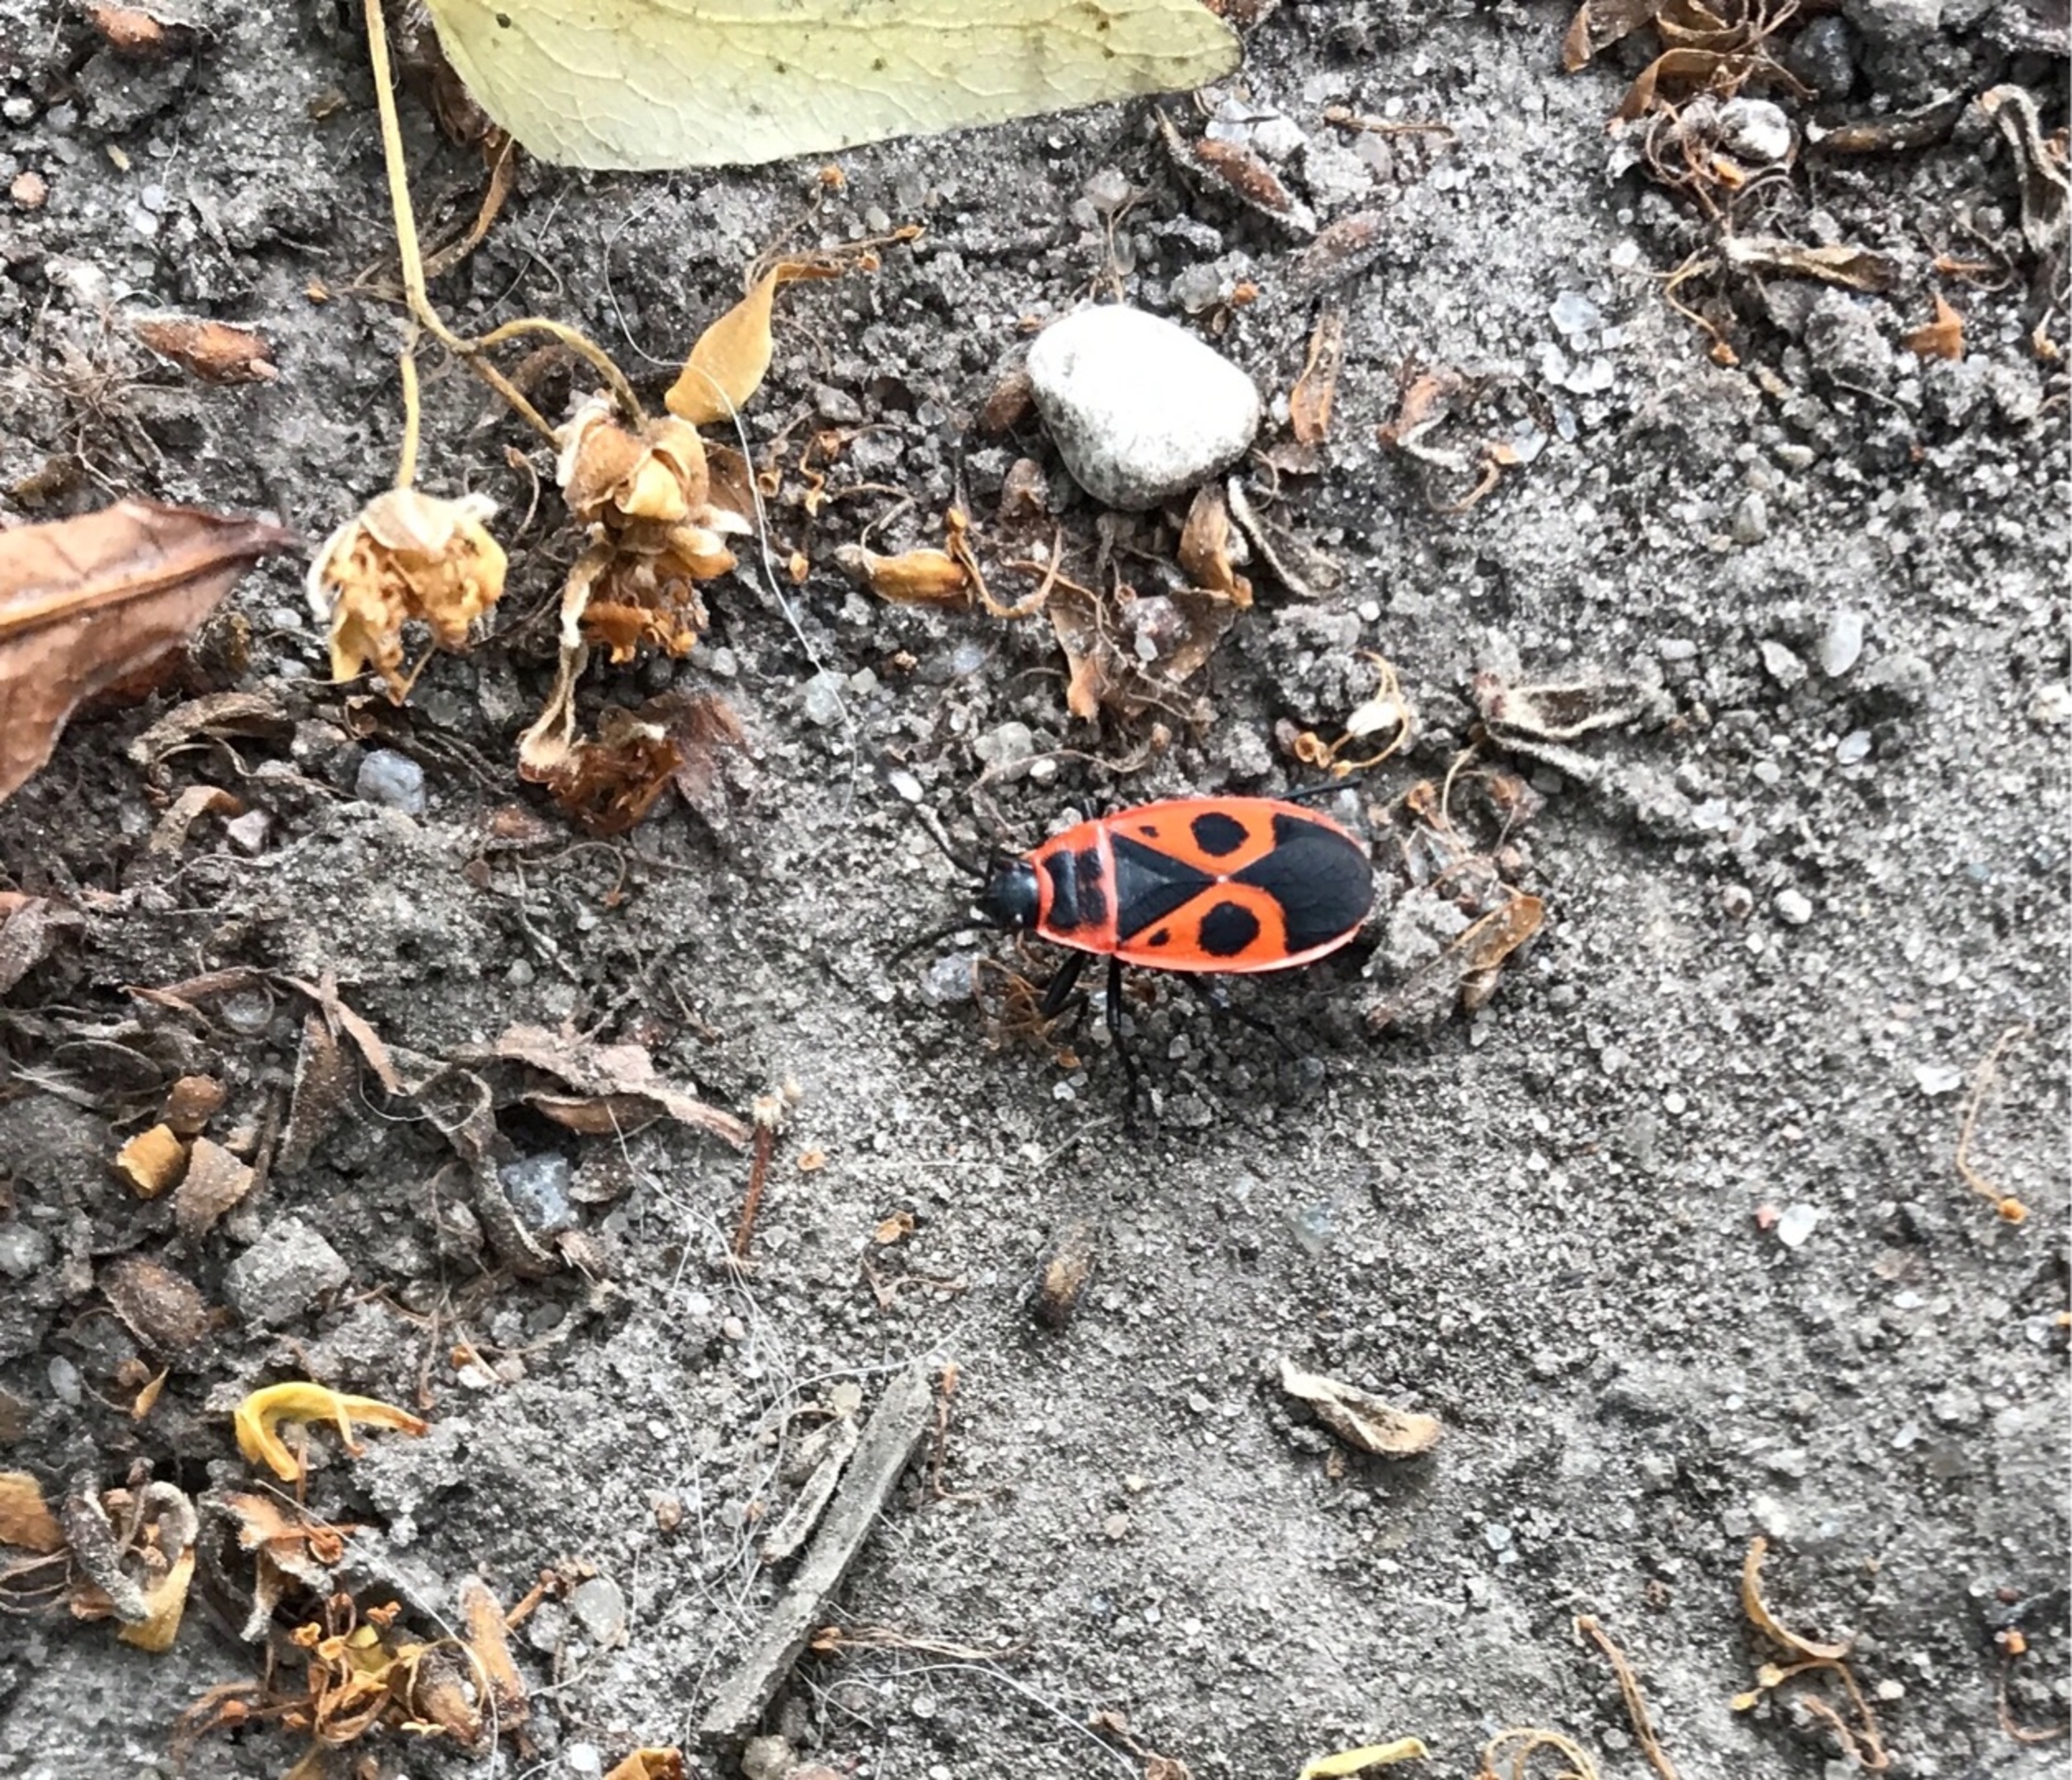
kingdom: Animalia
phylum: Arthropoda
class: Insecta
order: Hemiptera
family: Pyrrhocoridae
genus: Pyrrhocoris
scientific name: Pyrrhocoris apterus
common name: Ildtæge
